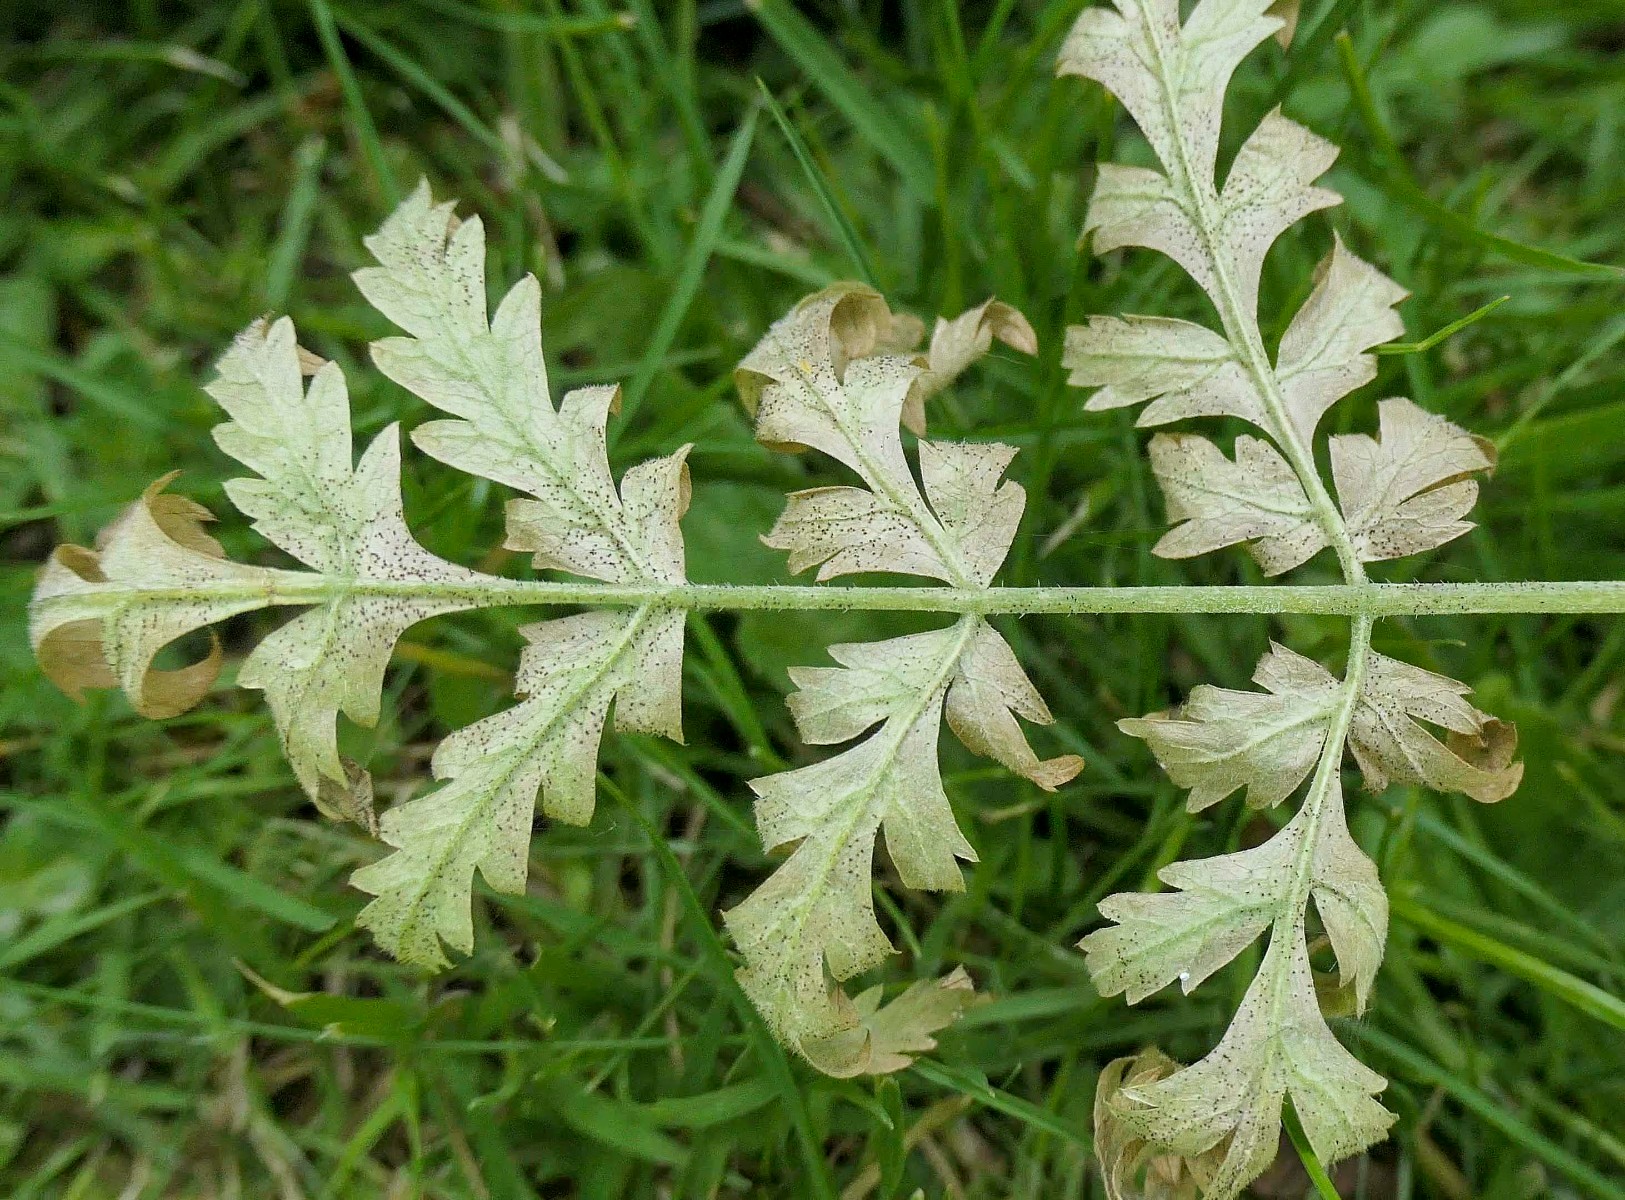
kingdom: Fungi
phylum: Ascomycota
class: Leotiomycetes
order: Helotiales
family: Erysiphaceae
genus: Erysiphe
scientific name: Erysiphe heraclei
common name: skærmplante-meldug
